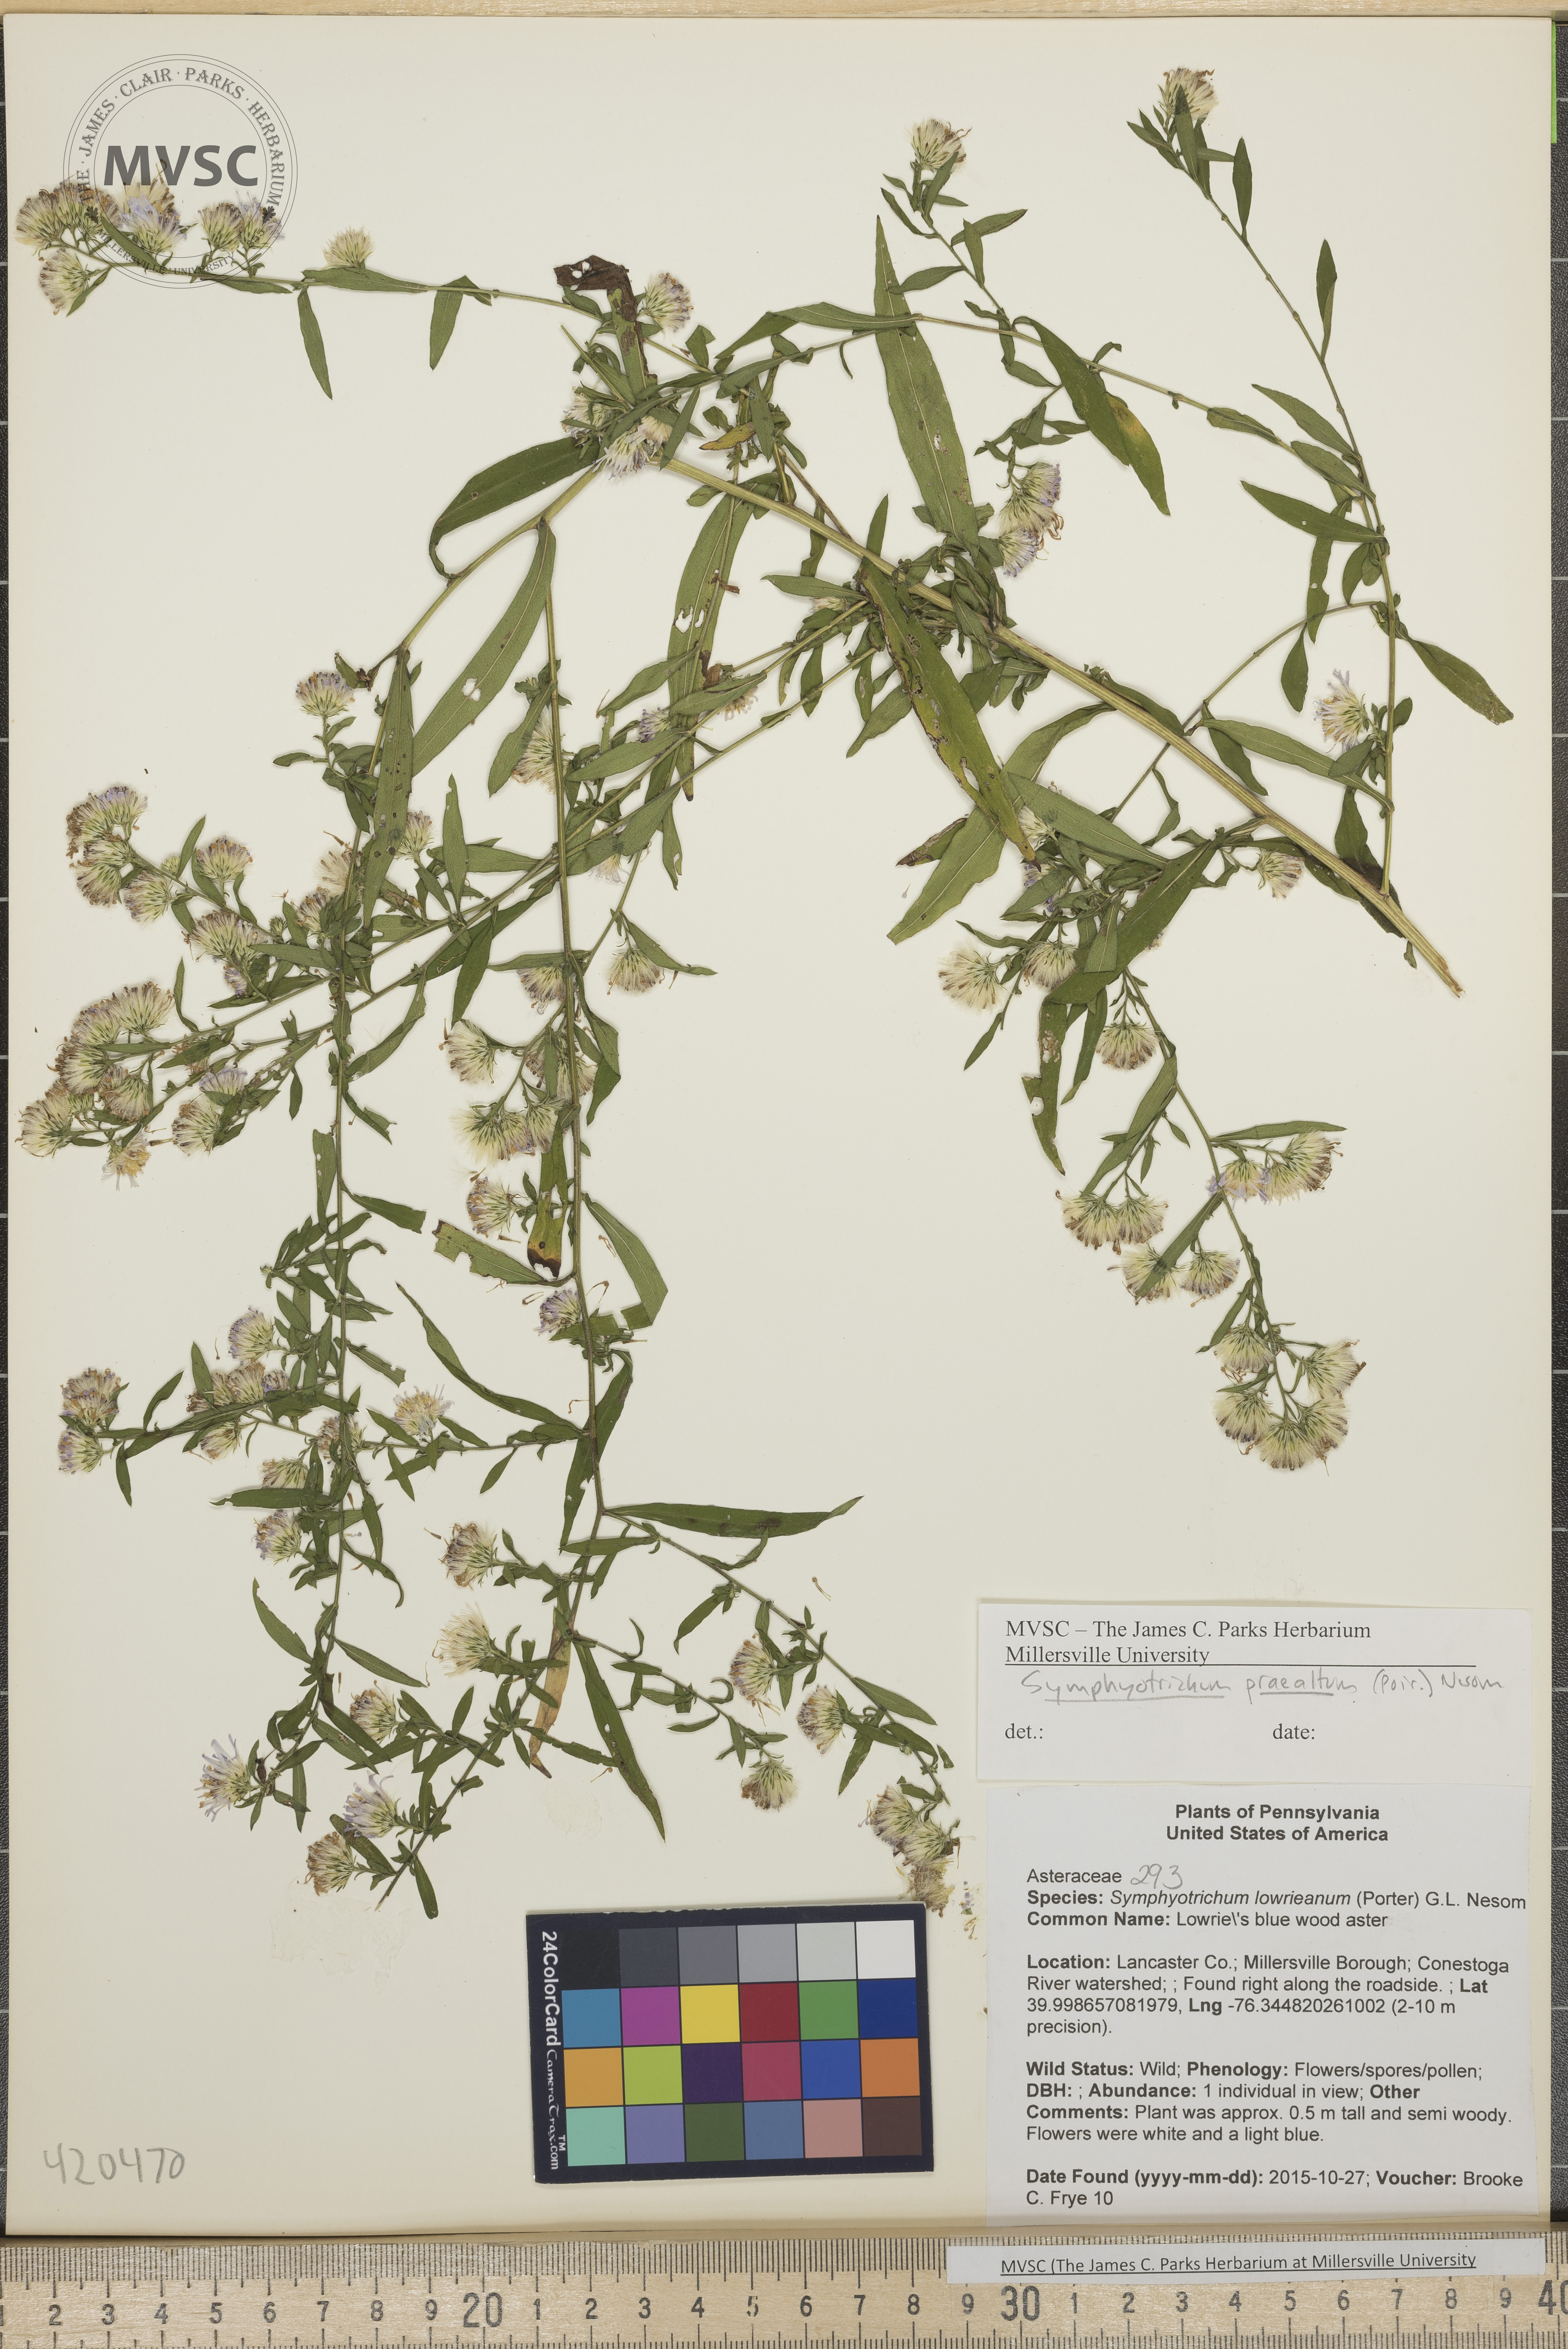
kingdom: Plantae
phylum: Tracheophyta
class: Magnoliopsida
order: Asterales
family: Asteraceae
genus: Symphyotrichum
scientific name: Symphyotrichum praealtum
